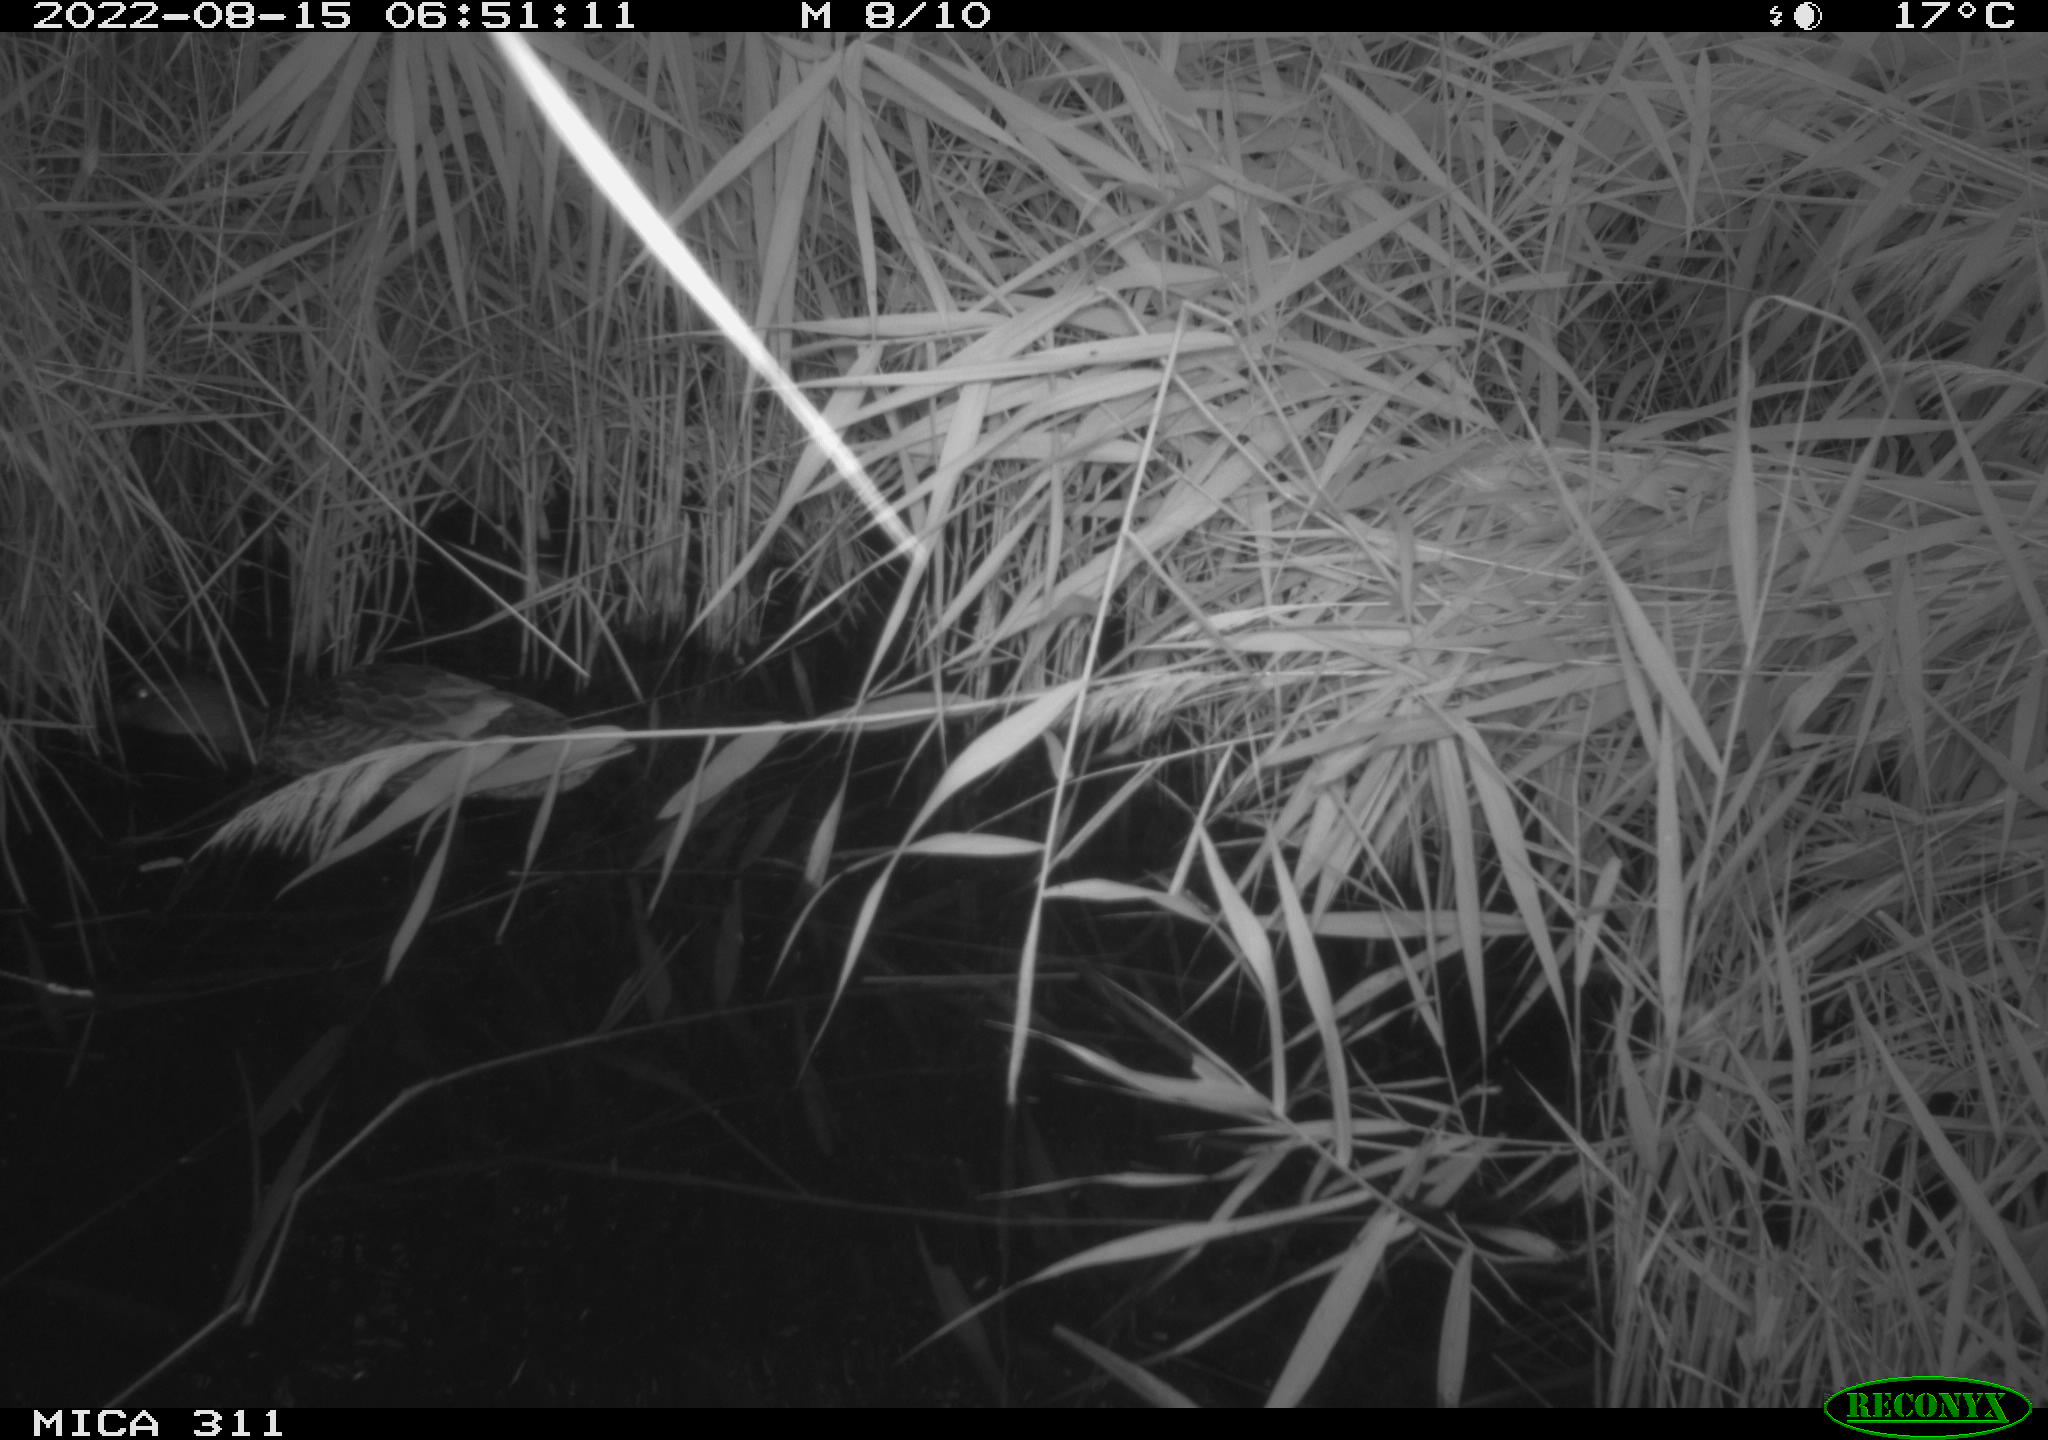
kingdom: Animalia
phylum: Chordata
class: Aves
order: Gruiformes
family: Rallidae
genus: Gallinula
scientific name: Gallinula chloropus
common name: Common moorhen
